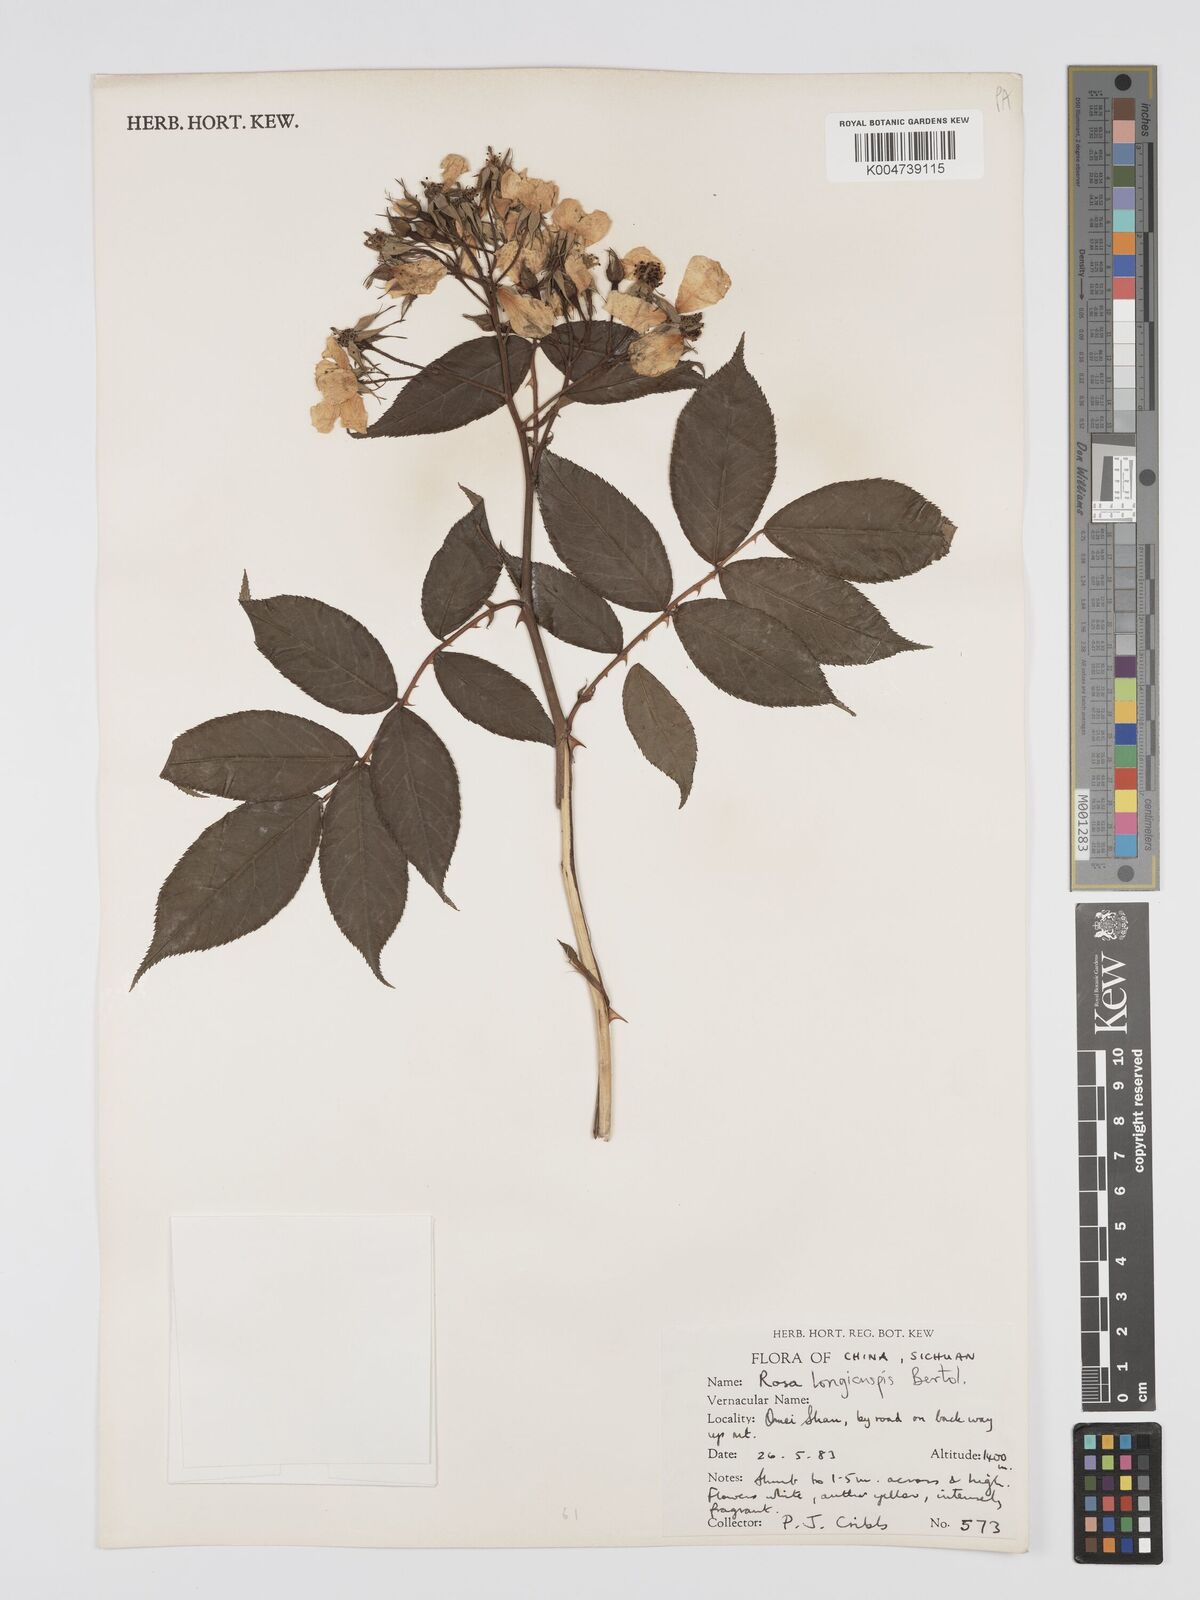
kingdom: Plantae
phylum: Tracheophyta
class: Magnoliopsida
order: Rosales
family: Rosaceae
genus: Rosa
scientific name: Rosa longicuspis
